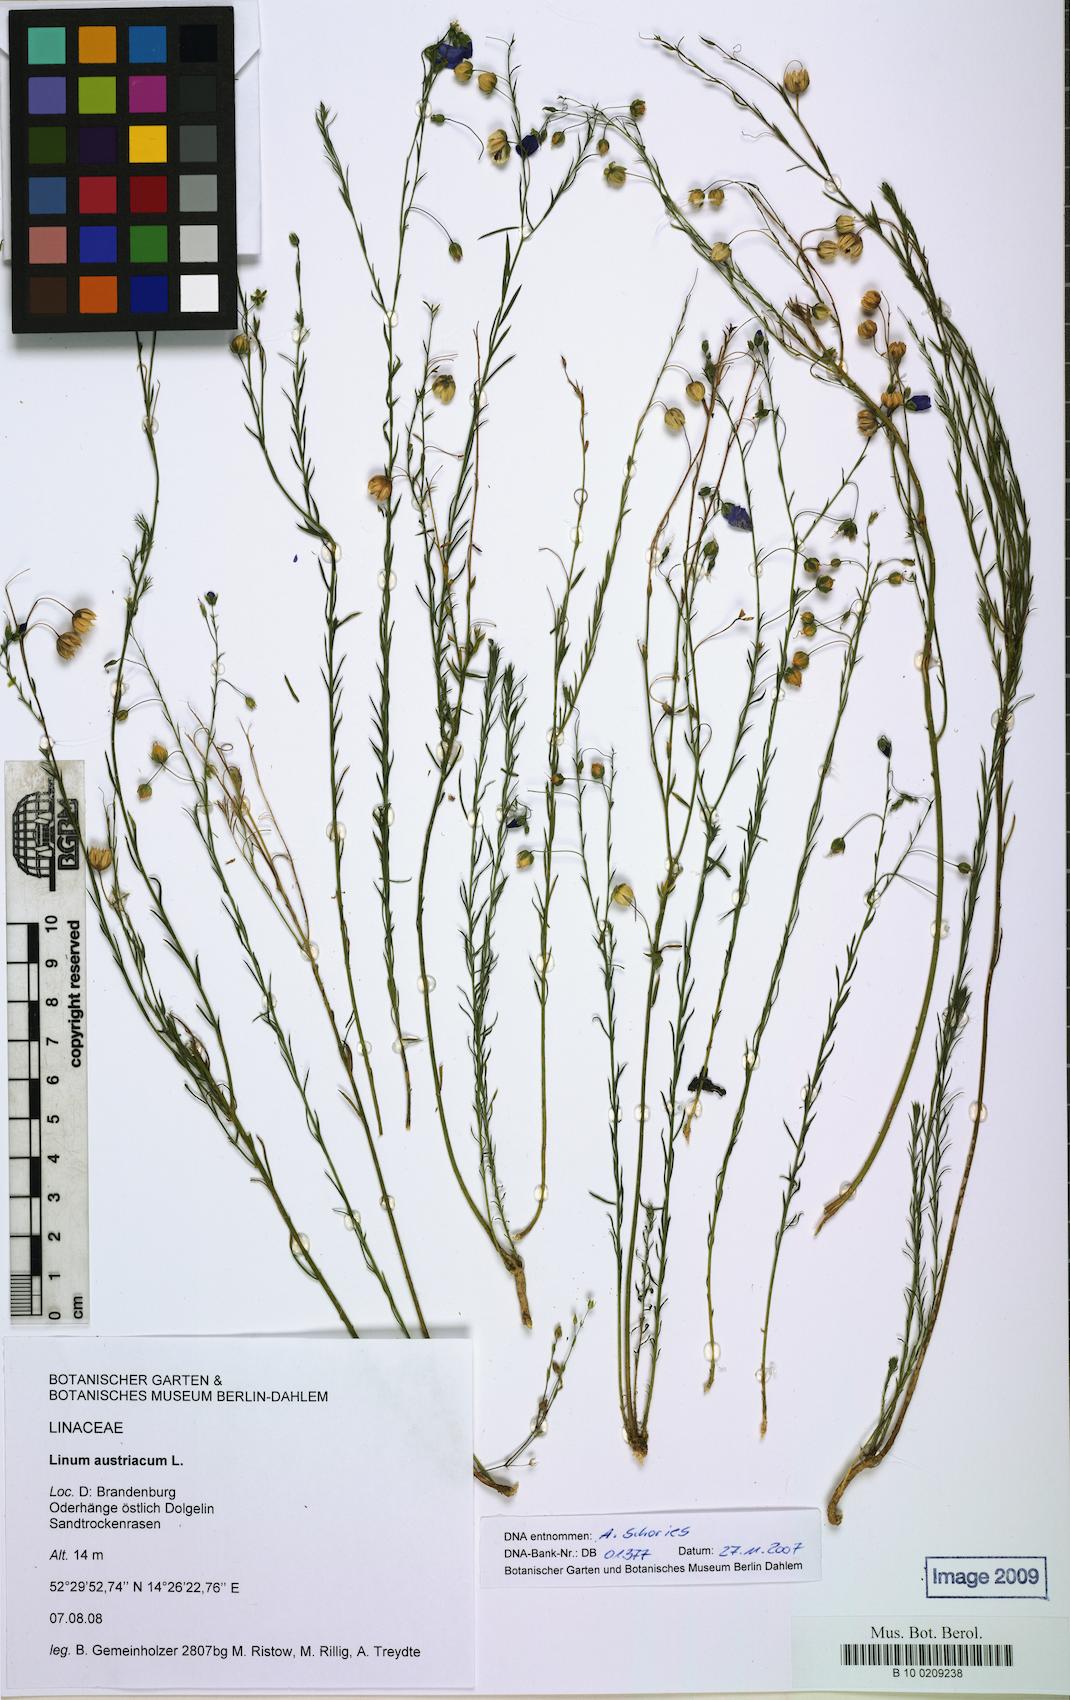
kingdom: Plantae
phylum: Tracheophyta
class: Magnoliopsida
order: Malpighiales
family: Linaceae
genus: Linum
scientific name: Linum austriacum
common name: Austrian flax
